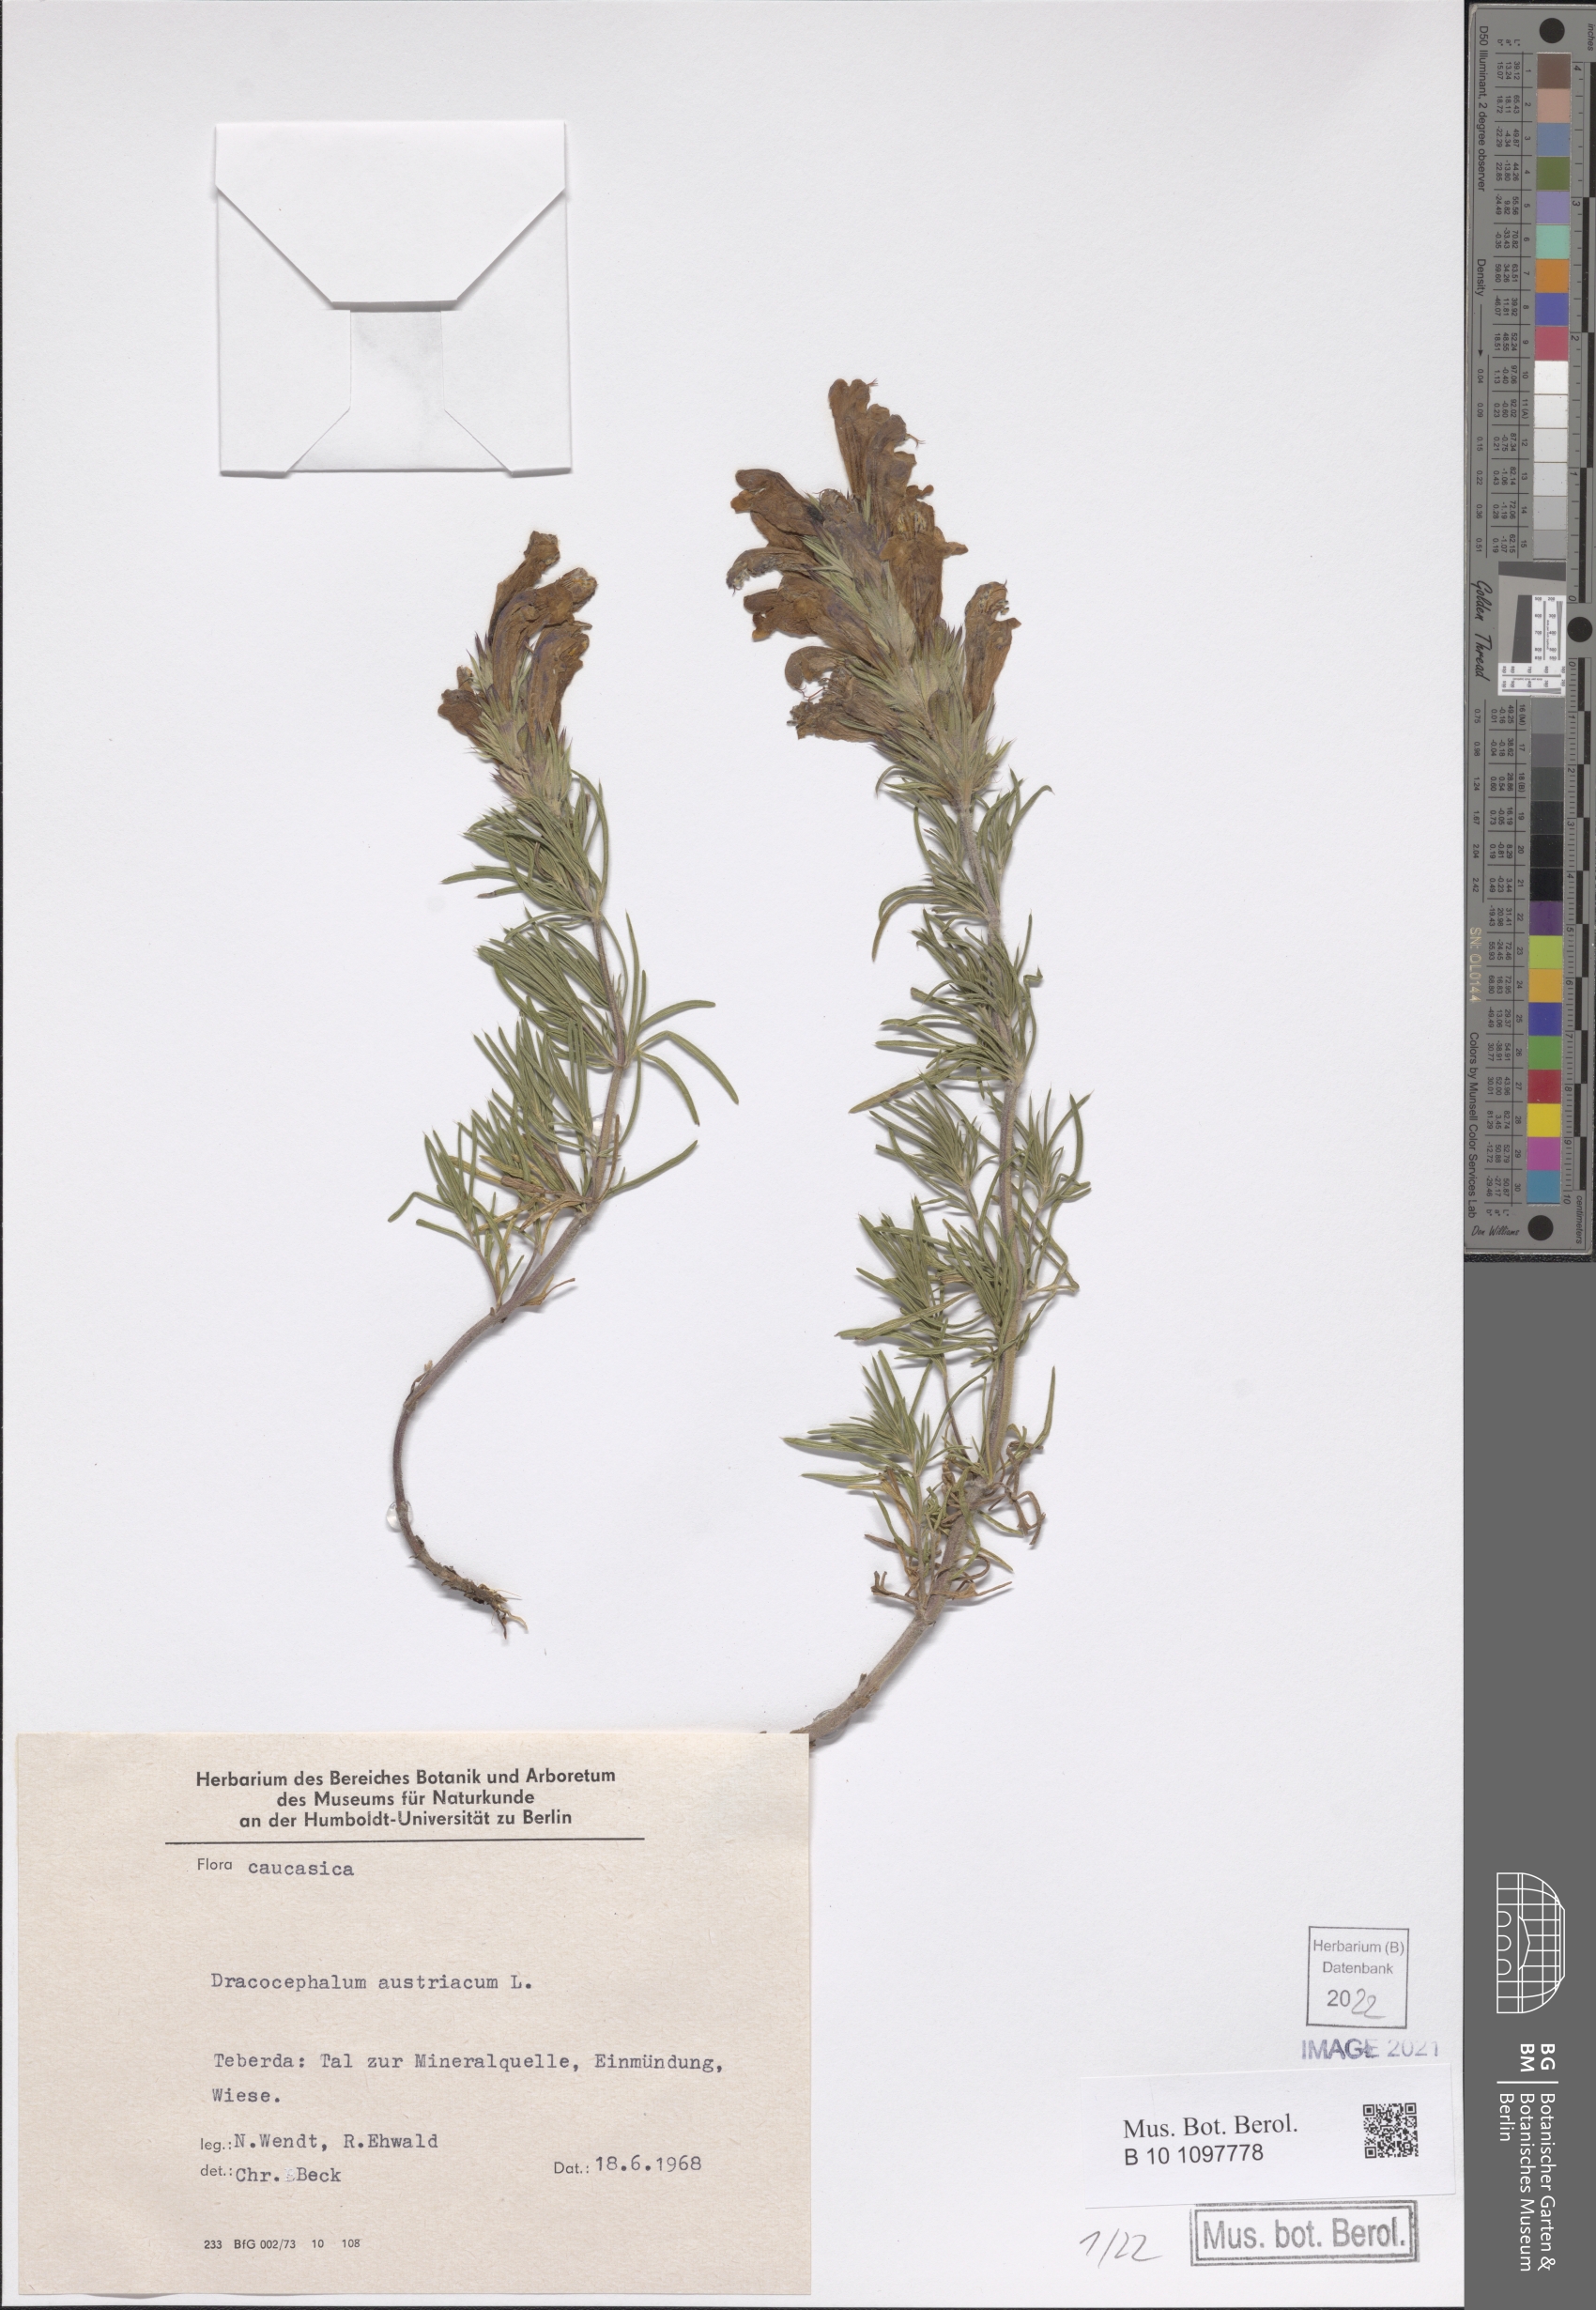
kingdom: Plantae
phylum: Tracheophyta
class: Magnoliopsida
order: Lamiales
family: Lamiaceae
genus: Dracocephalum
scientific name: Dracocephalum austriacum
